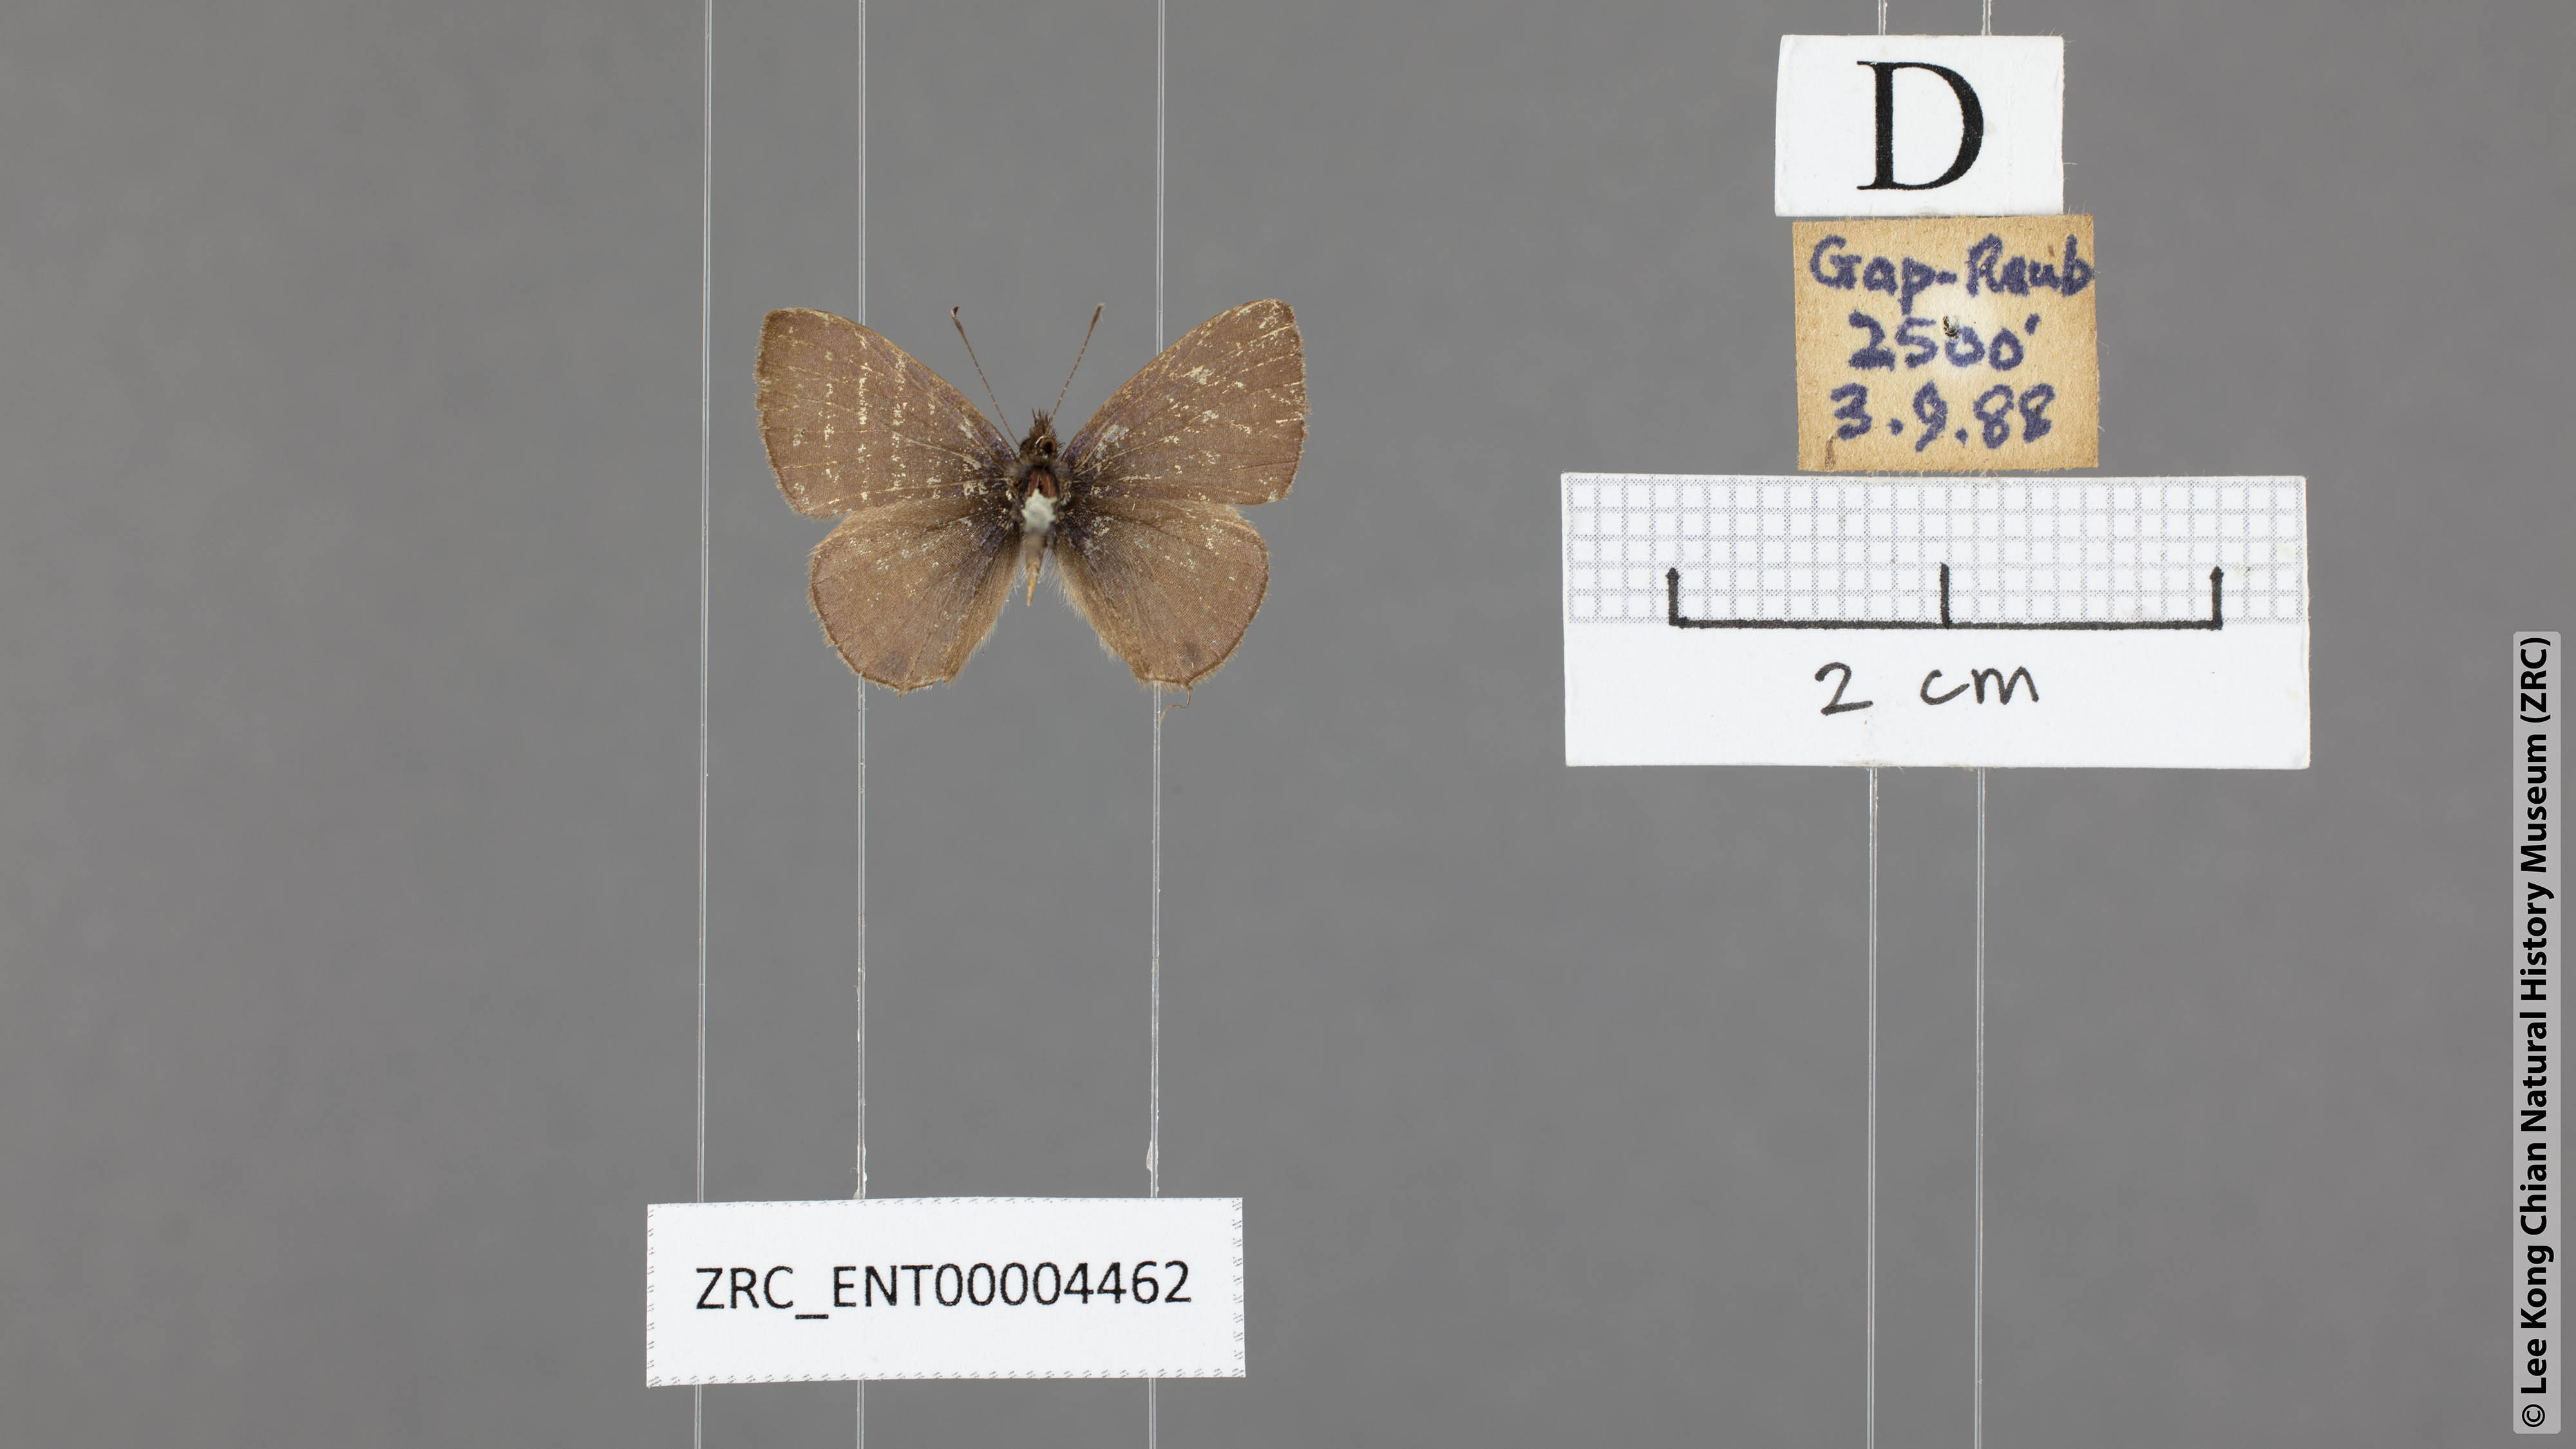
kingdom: Animalia
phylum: Arthropoda
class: Insecta
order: Lepidoptera
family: Lycaenidae
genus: Prosotas
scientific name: Prosotas nora
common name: Common line blue
